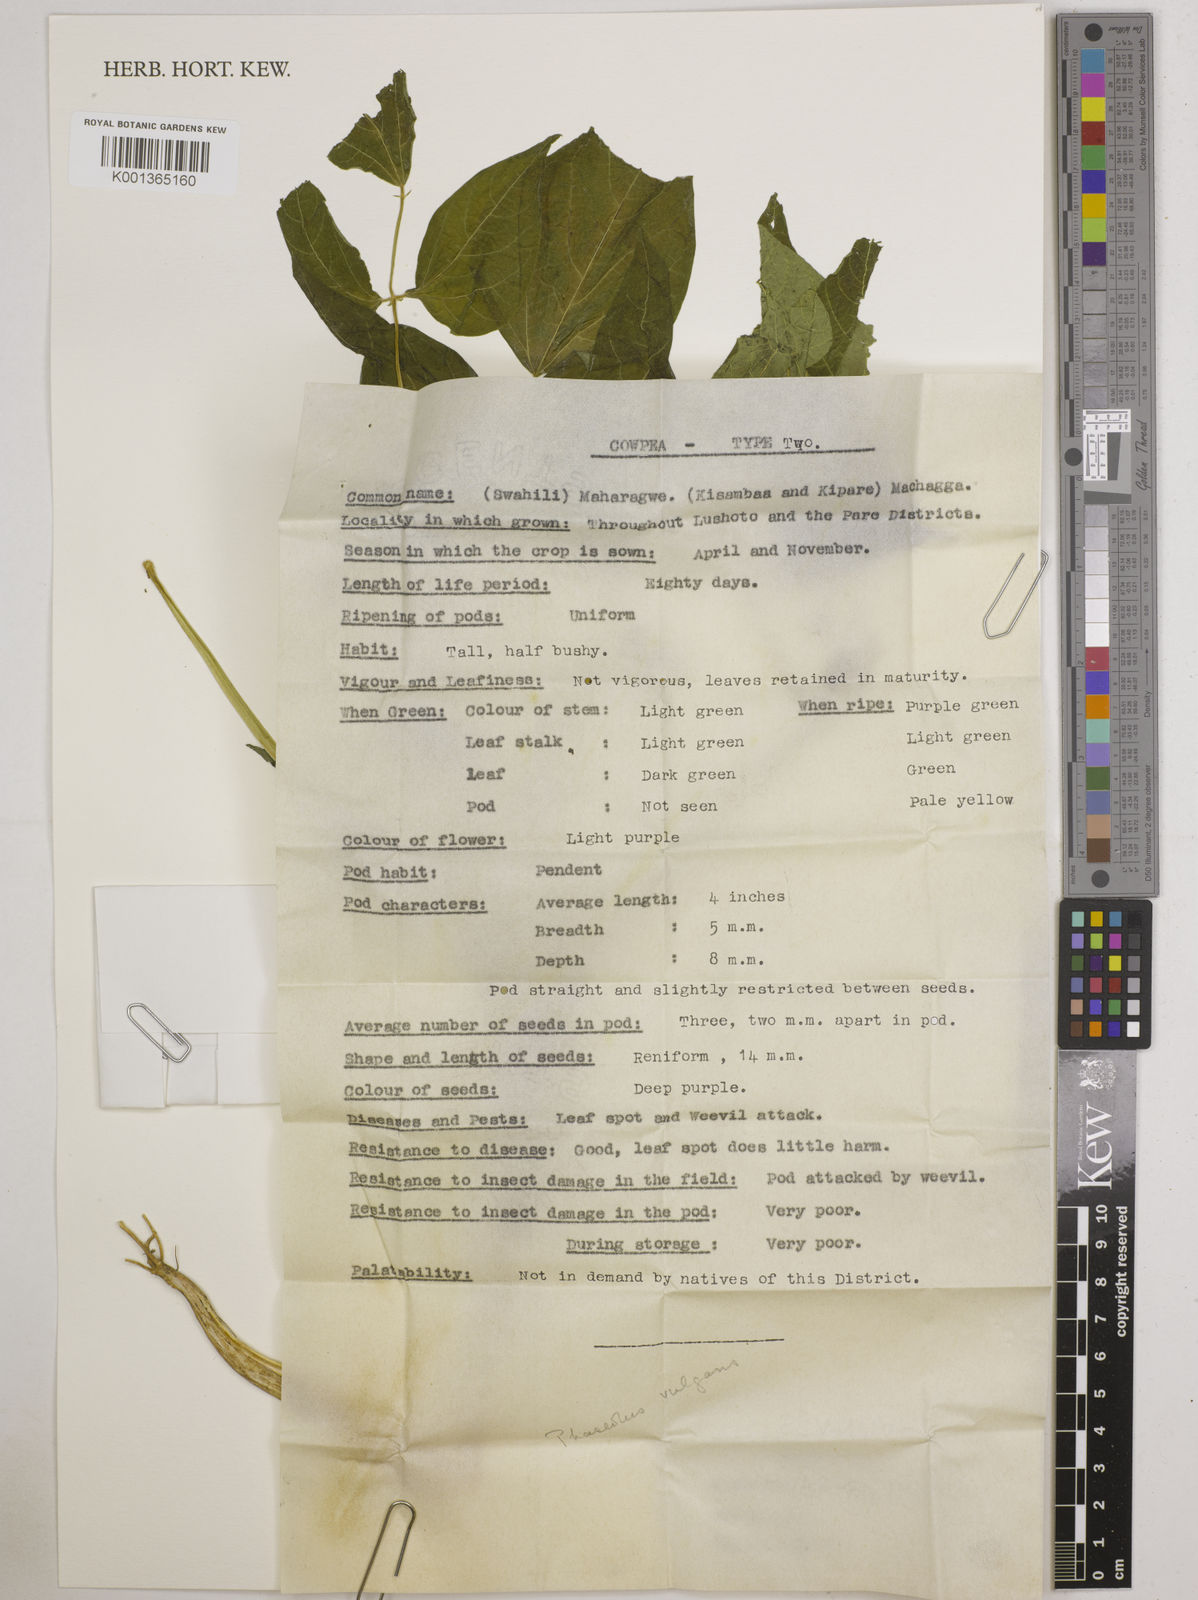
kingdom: Plantae
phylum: Tracheophyta
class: Magnoliopsida
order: Fabales
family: Fabaceae
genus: Phaseolus
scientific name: Phaseolus vulgaris
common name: Bean
